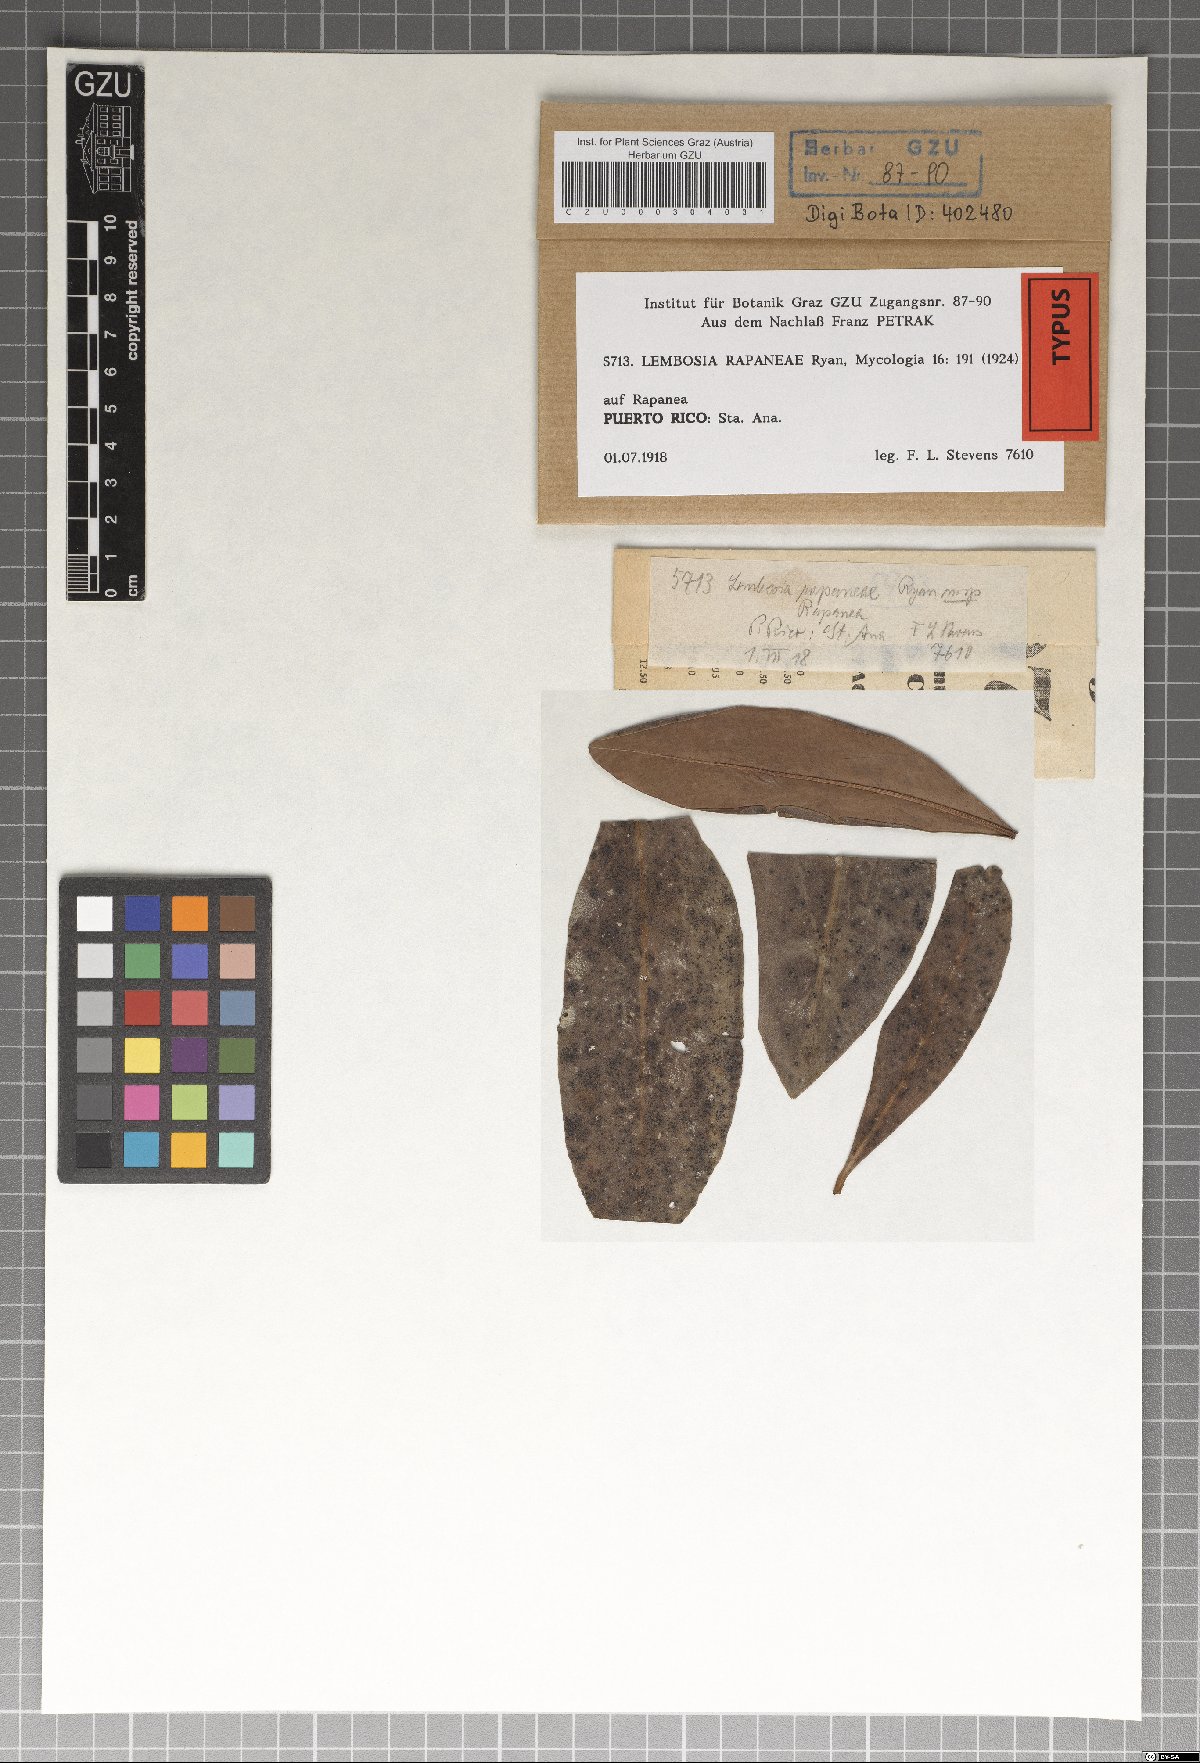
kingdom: Fungi
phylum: Ascomycota
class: Dothideomycetes
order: Asterinales
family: Asterinaceae
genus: Lembosia
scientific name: Lembosia rapaneae
